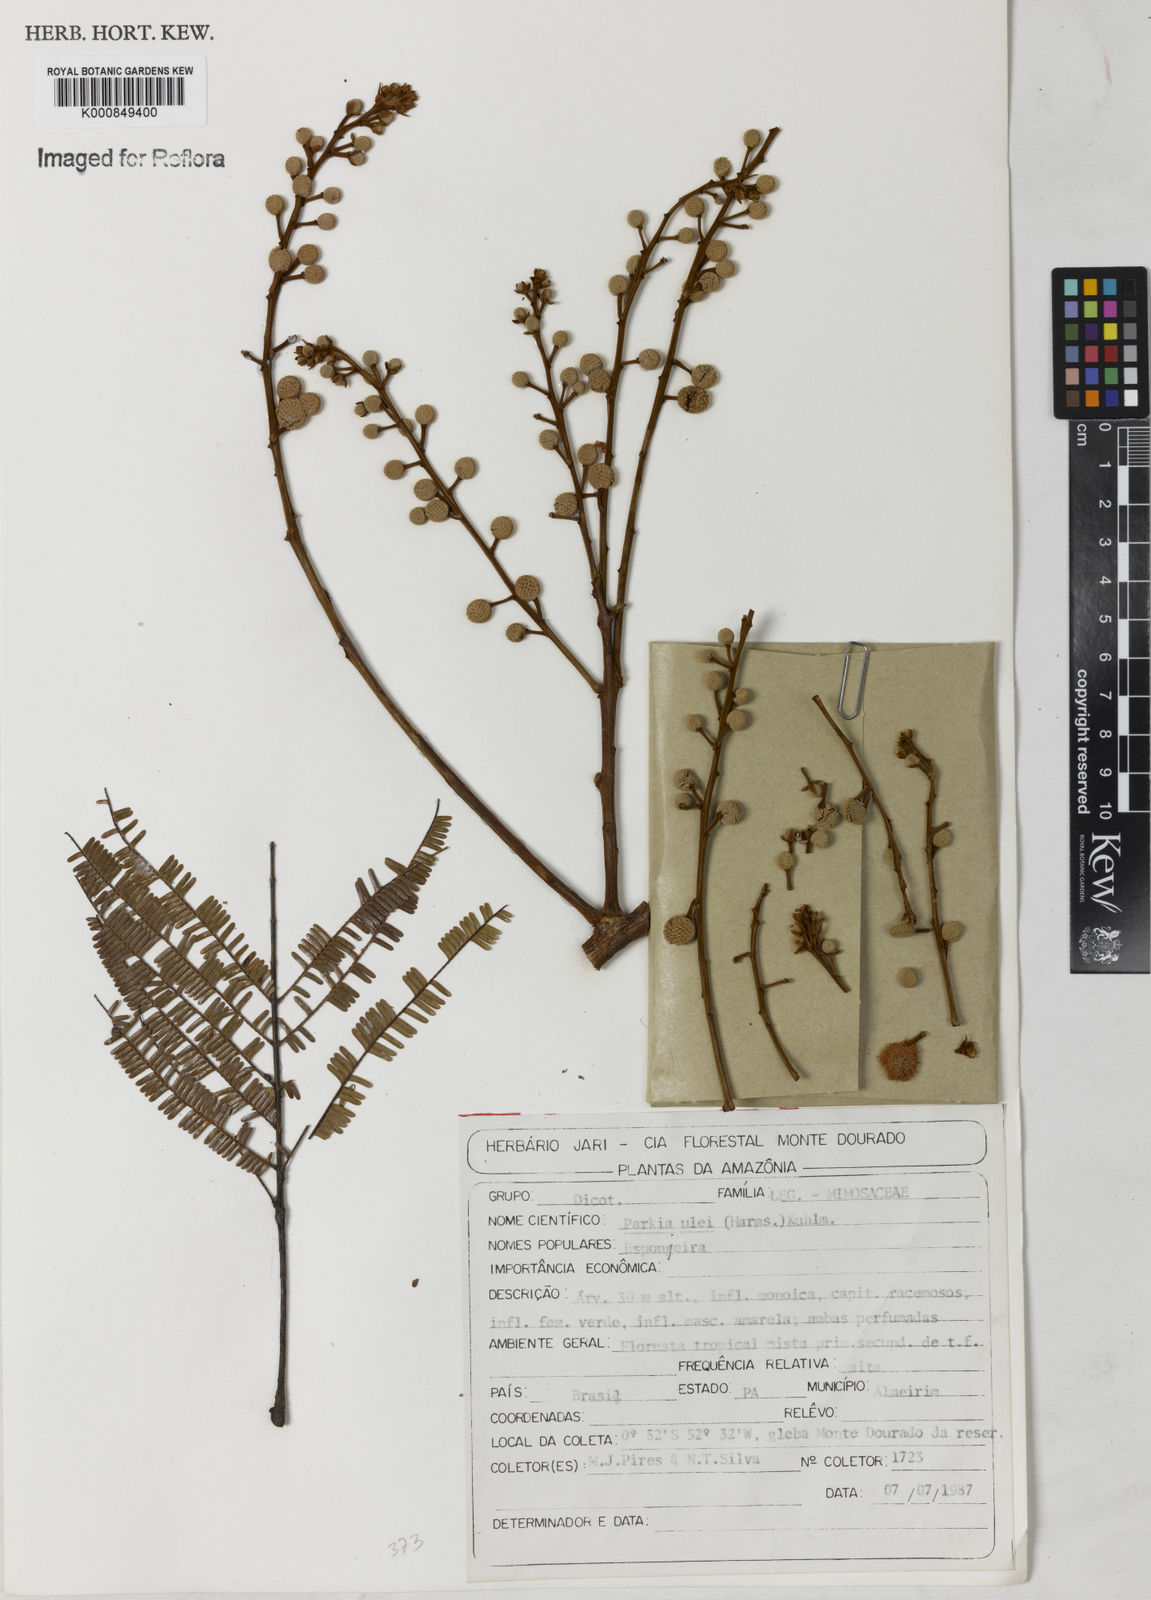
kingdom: Plantae
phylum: Tracheophyta
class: Magnoliopsida
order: Fabales
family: Fabaceae
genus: Parkia
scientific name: Parkia ulei
